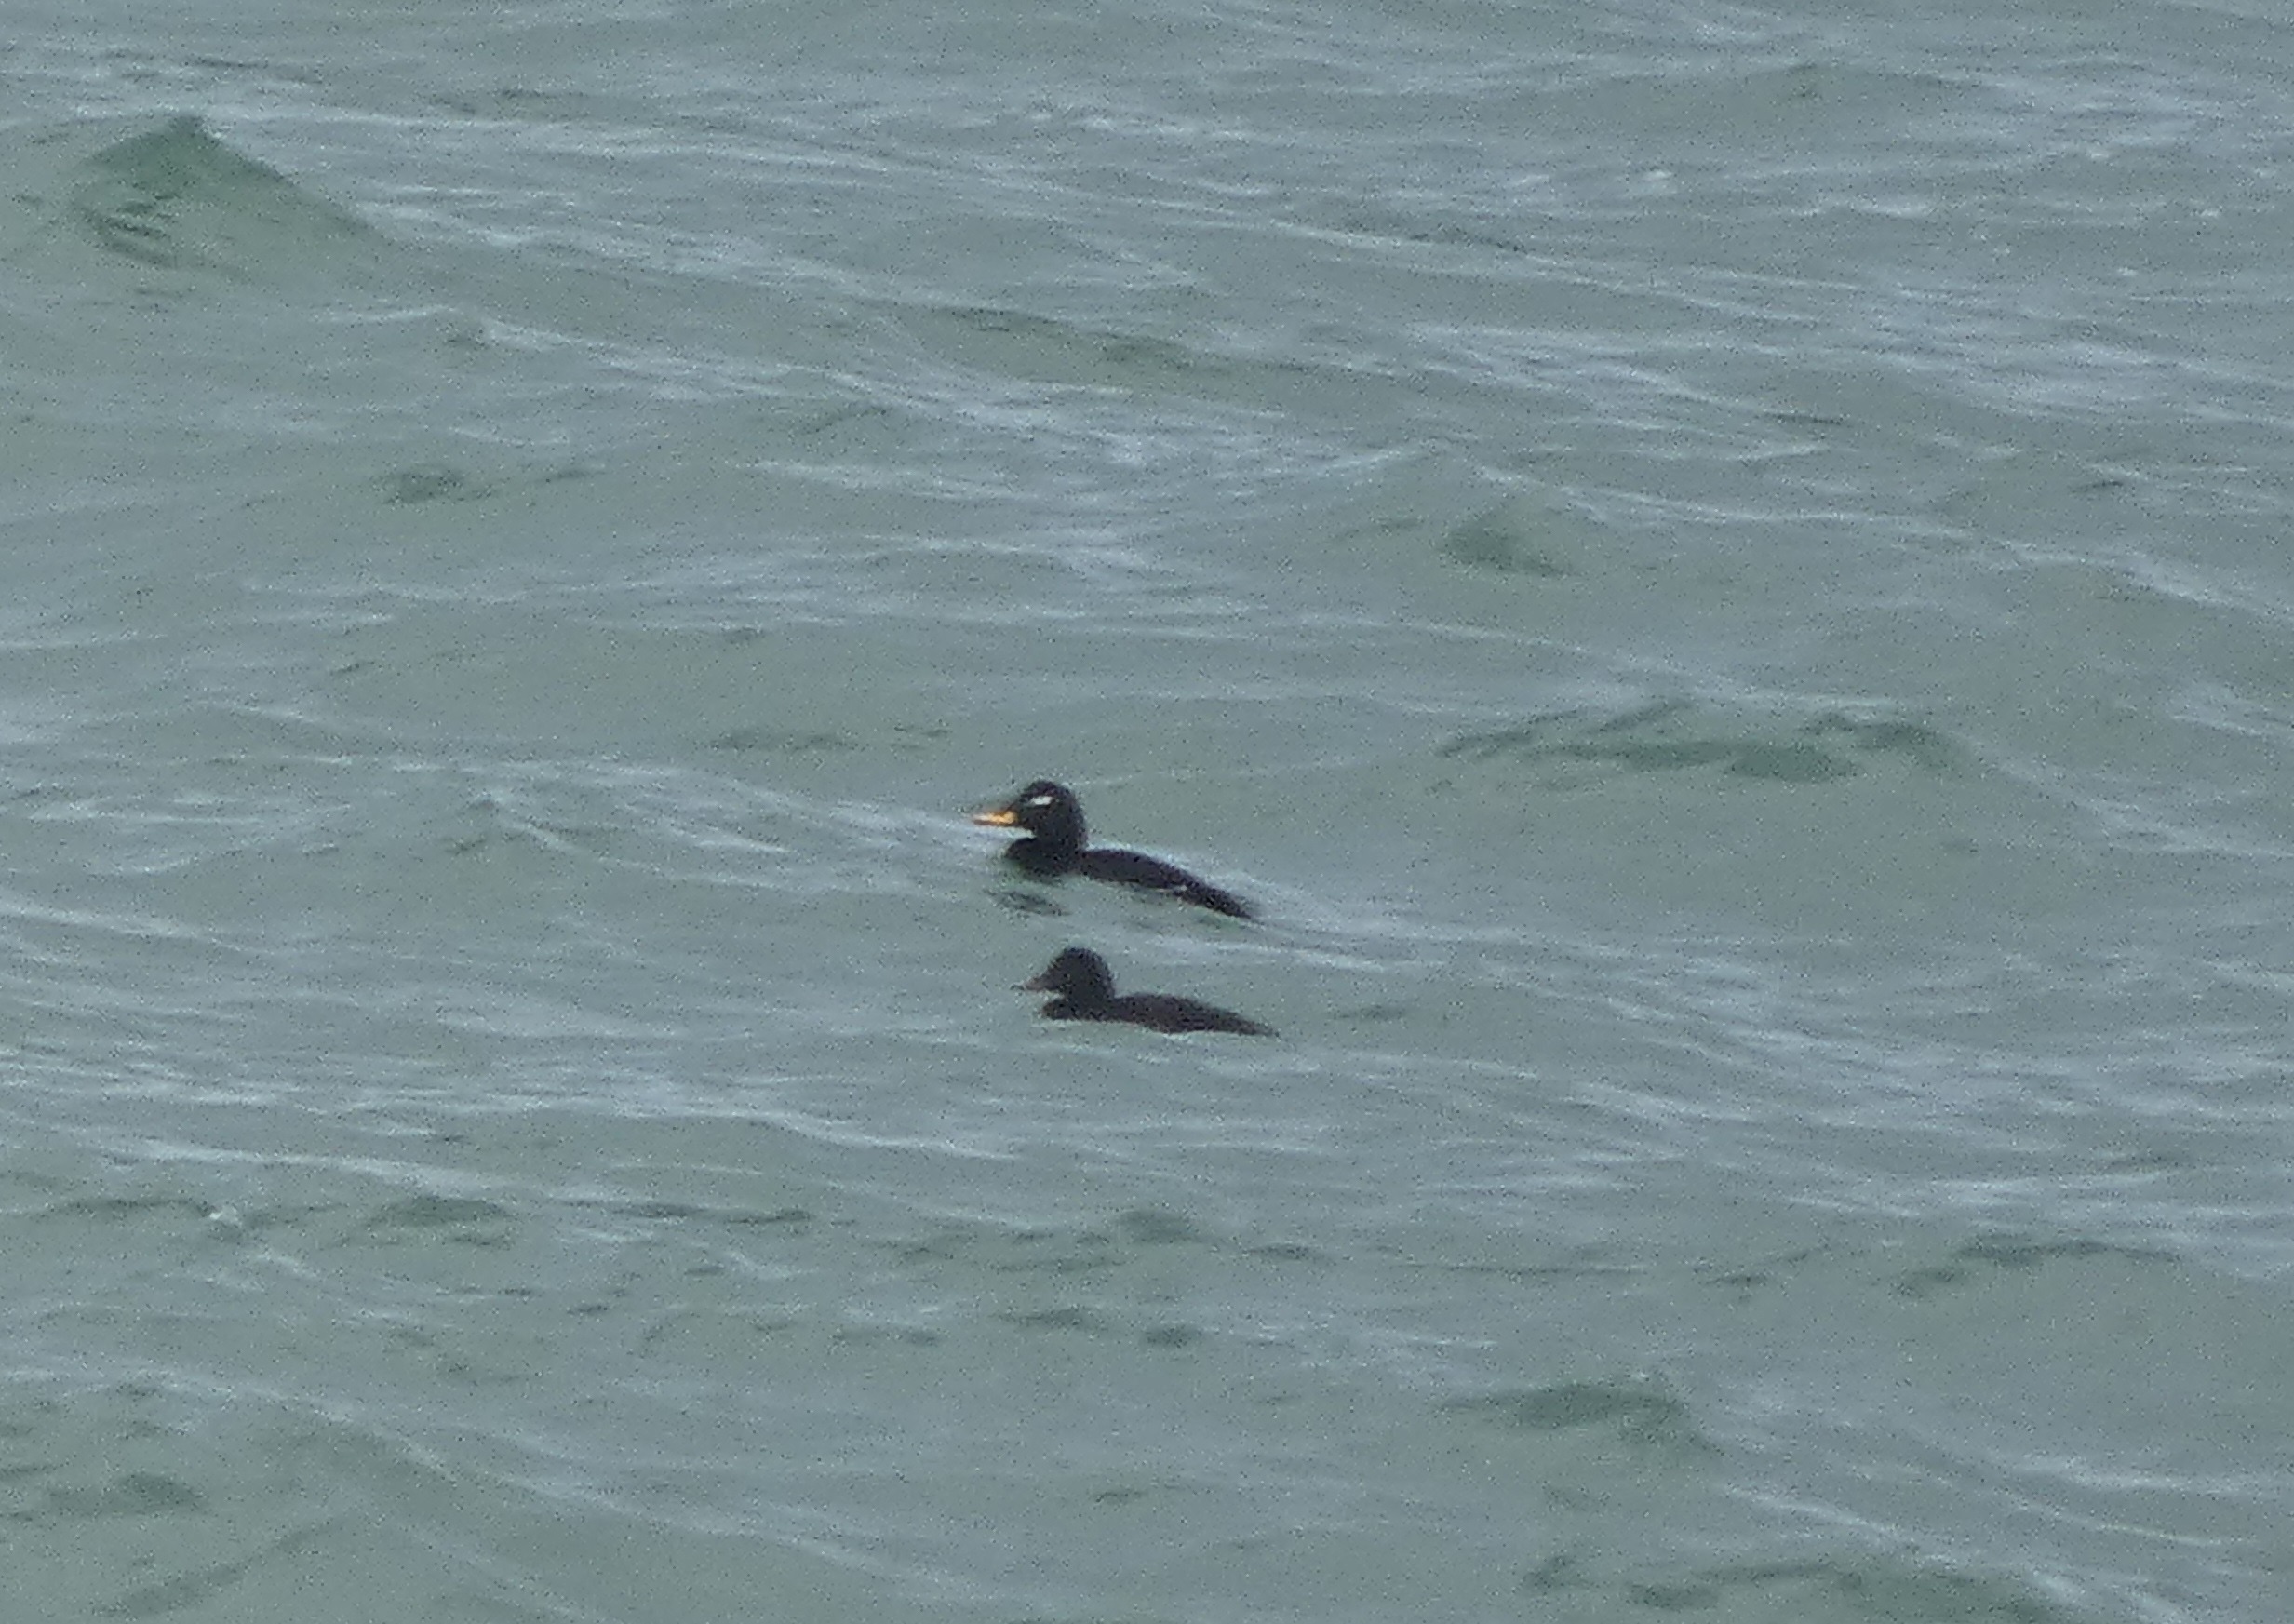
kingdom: Animalia
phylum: Chordata
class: Aves
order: Anseriformes
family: Anatidae
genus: Melanitta
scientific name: Melanitta fusca
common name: Fløjlsand
